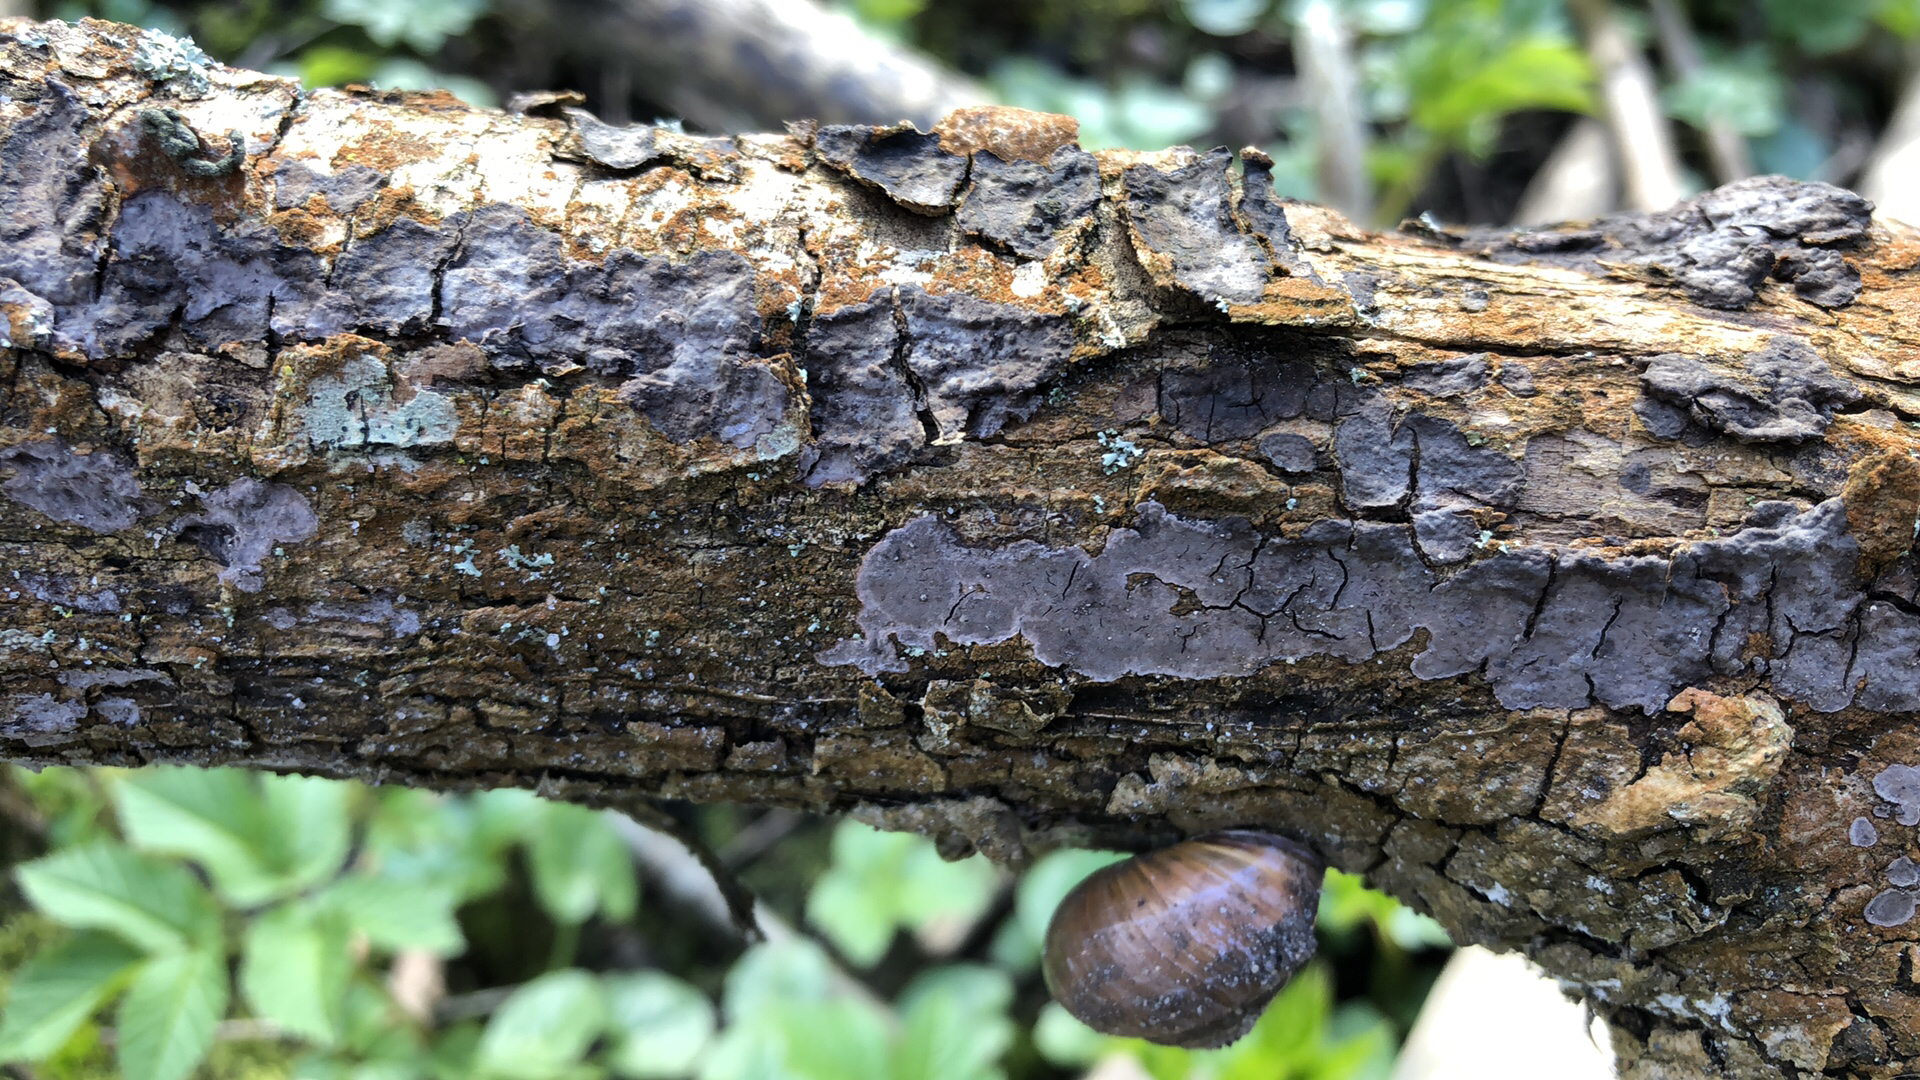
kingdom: Fungi
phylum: Basidiomycota
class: Agaricomycetes
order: Russulales
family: Peniophoraceae
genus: Peniophora
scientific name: Peniophora limitata
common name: mørkrandet voksskind
